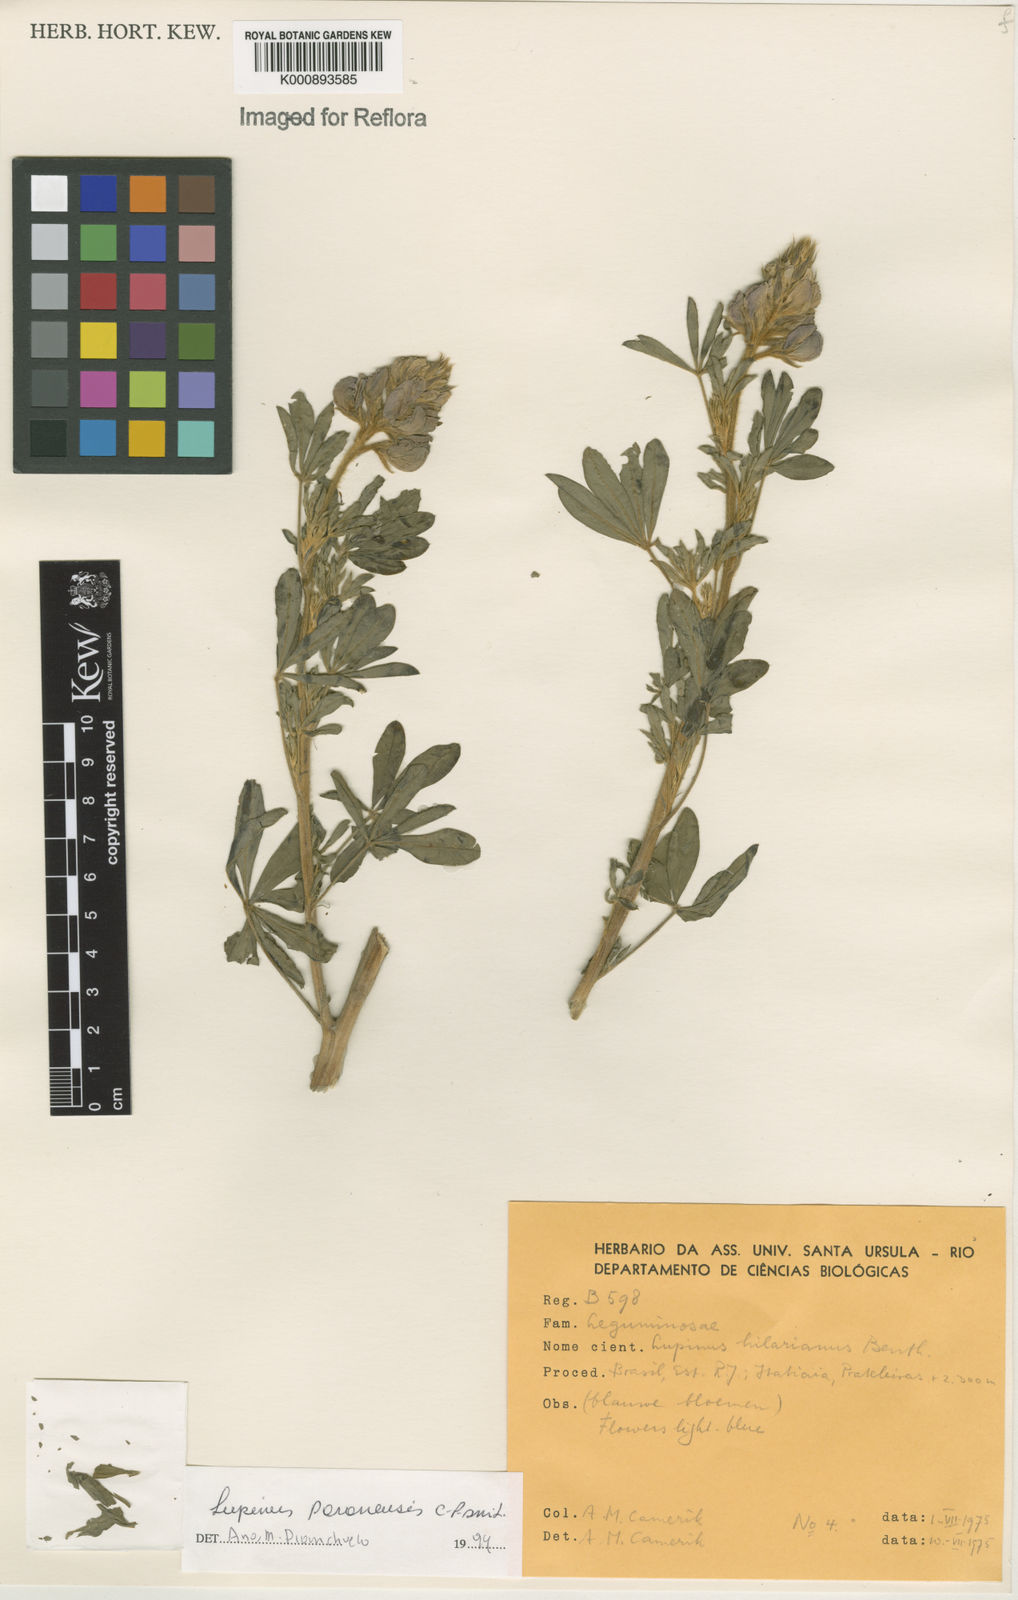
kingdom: Plantae
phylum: Tracheophyta
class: Magnoliopsida
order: Fabales
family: Fabaceae
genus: Lupinus
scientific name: Lupinus paranensis
